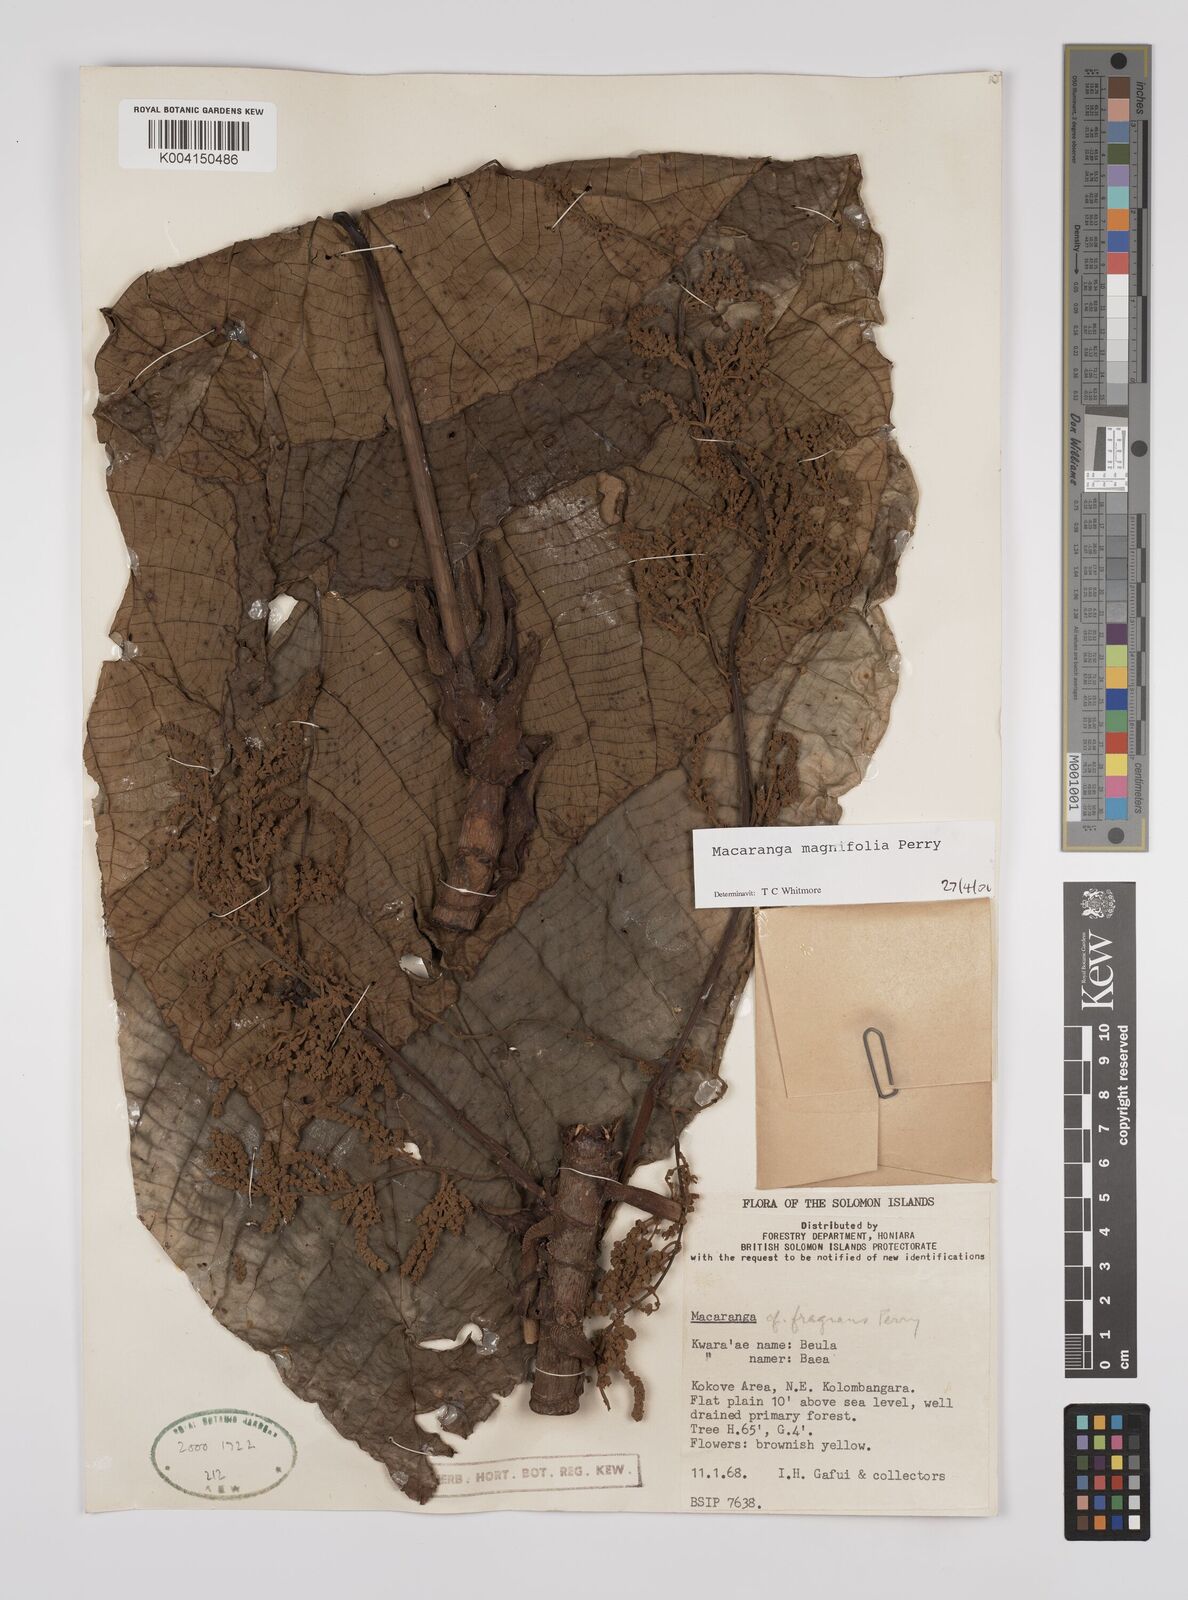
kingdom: Plantae
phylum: Tracheophyta
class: Magnoliopsida
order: Malpighiales
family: Euphorbiaceae
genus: Macaranga
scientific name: Macaranga magnifolia
